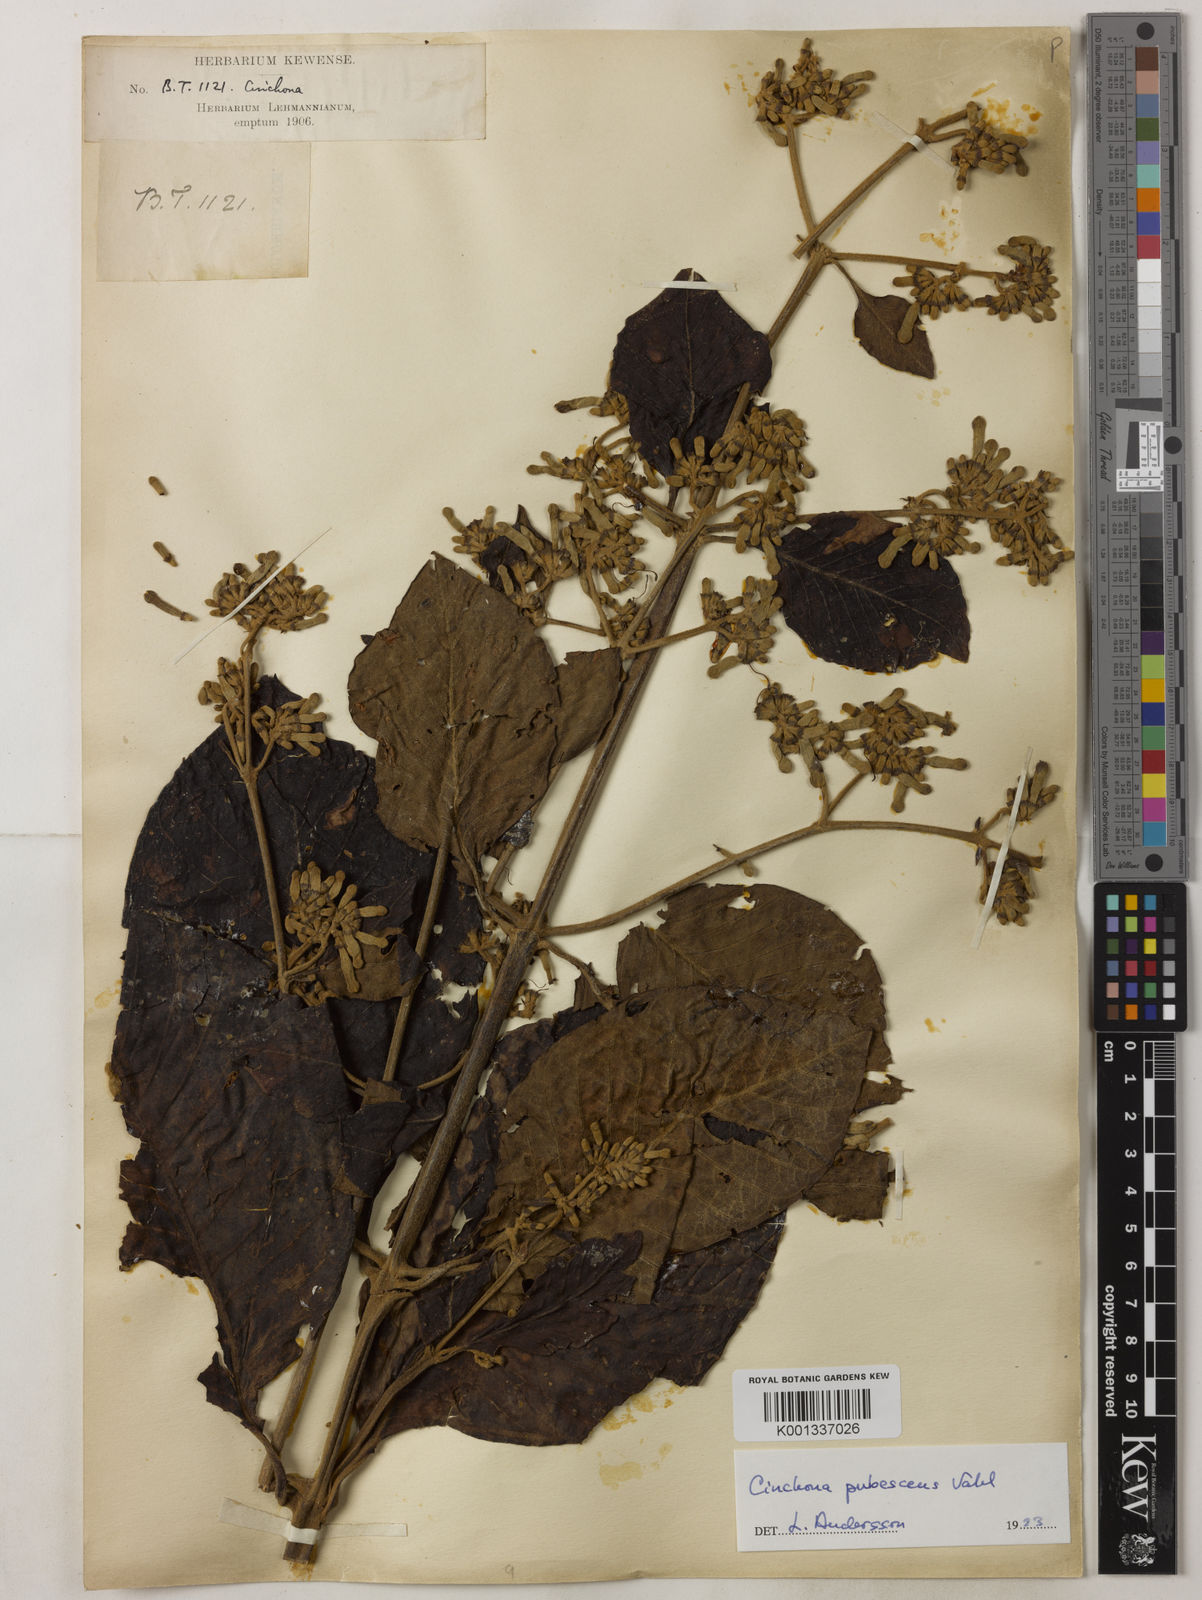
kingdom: Plantae
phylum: Tracheophyta
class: Magnoliopsida
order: Gentianales
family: Rubiaceae
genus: Cinchona
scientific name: Cinchona pubescens
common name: Quinine
